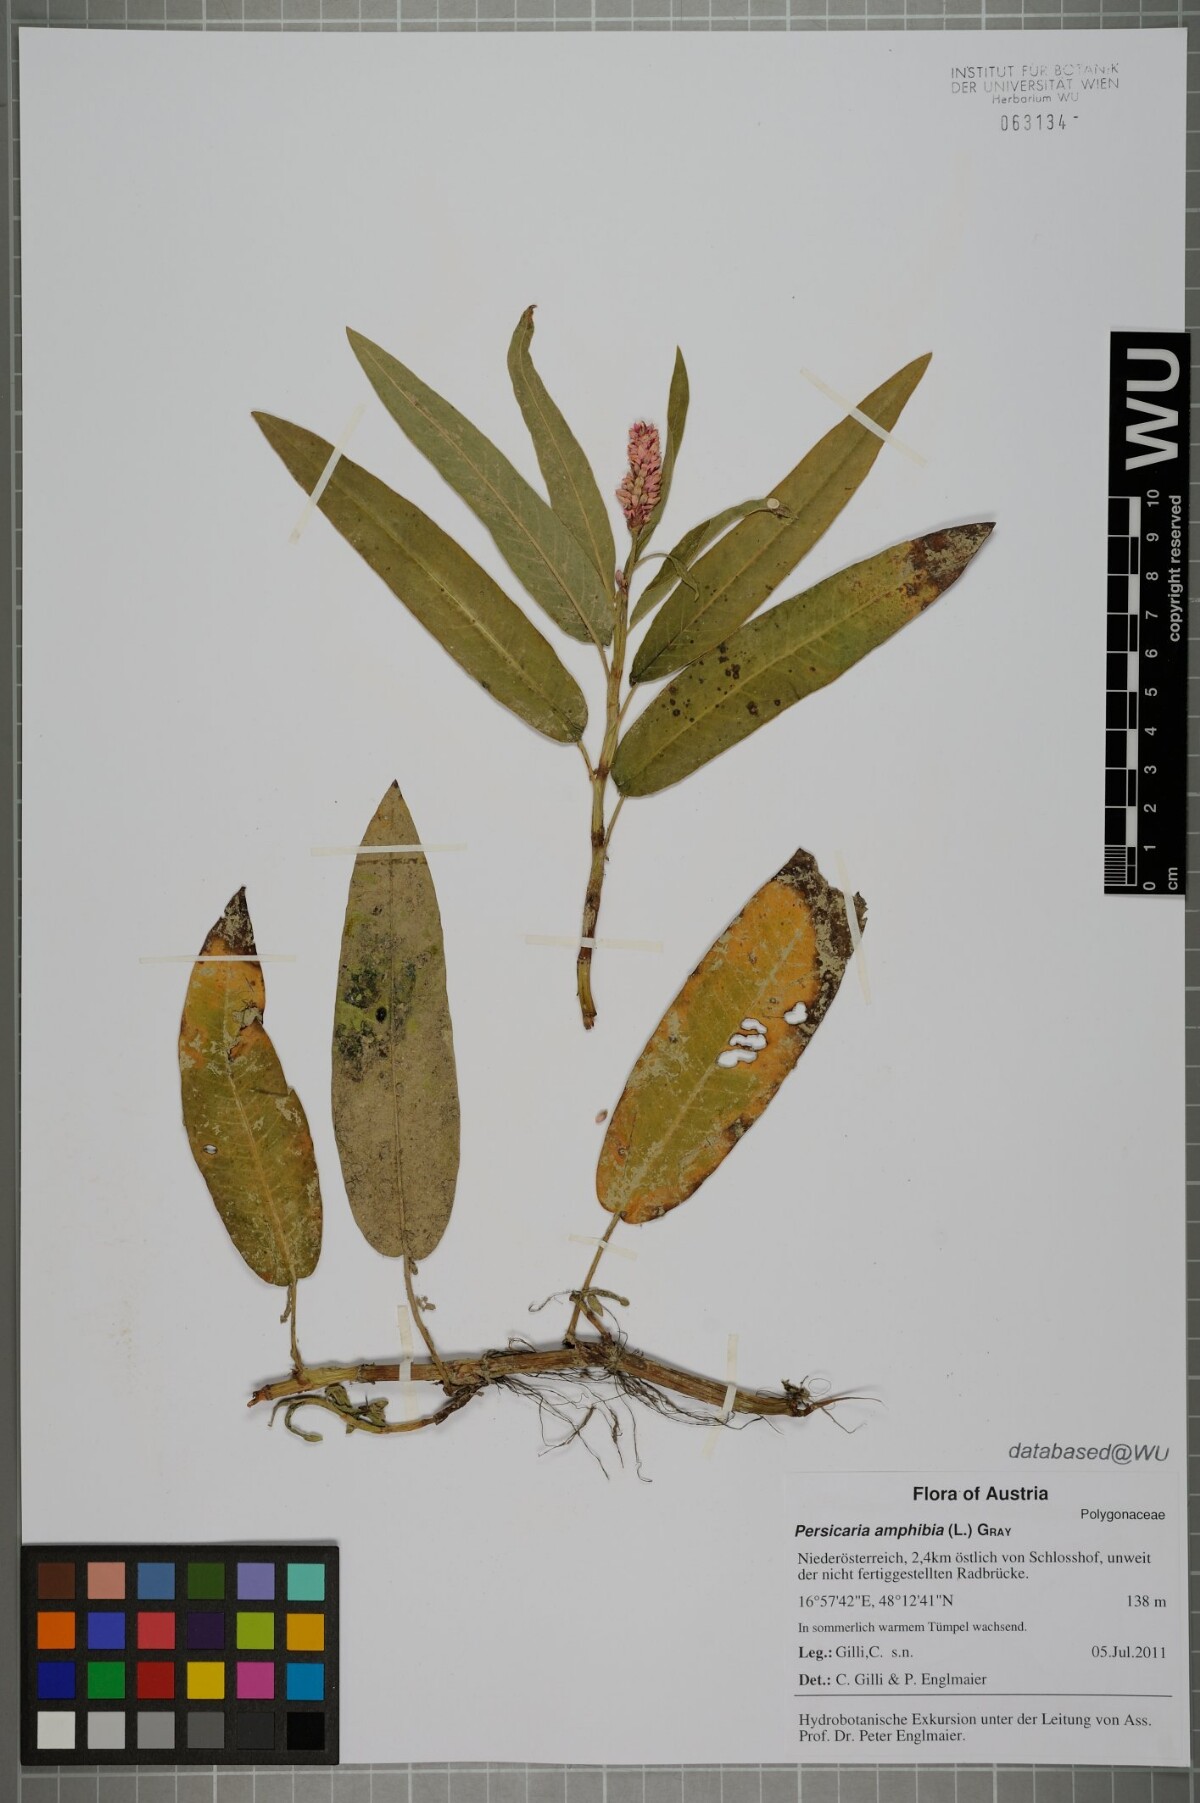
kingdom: Plantae
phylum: Tracheophyta
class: Magnoliopsida
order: Caryophyllales
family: Polygonaceae
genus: Persicaria
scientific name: Persicaria amphibia
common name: Amphibious bistort
